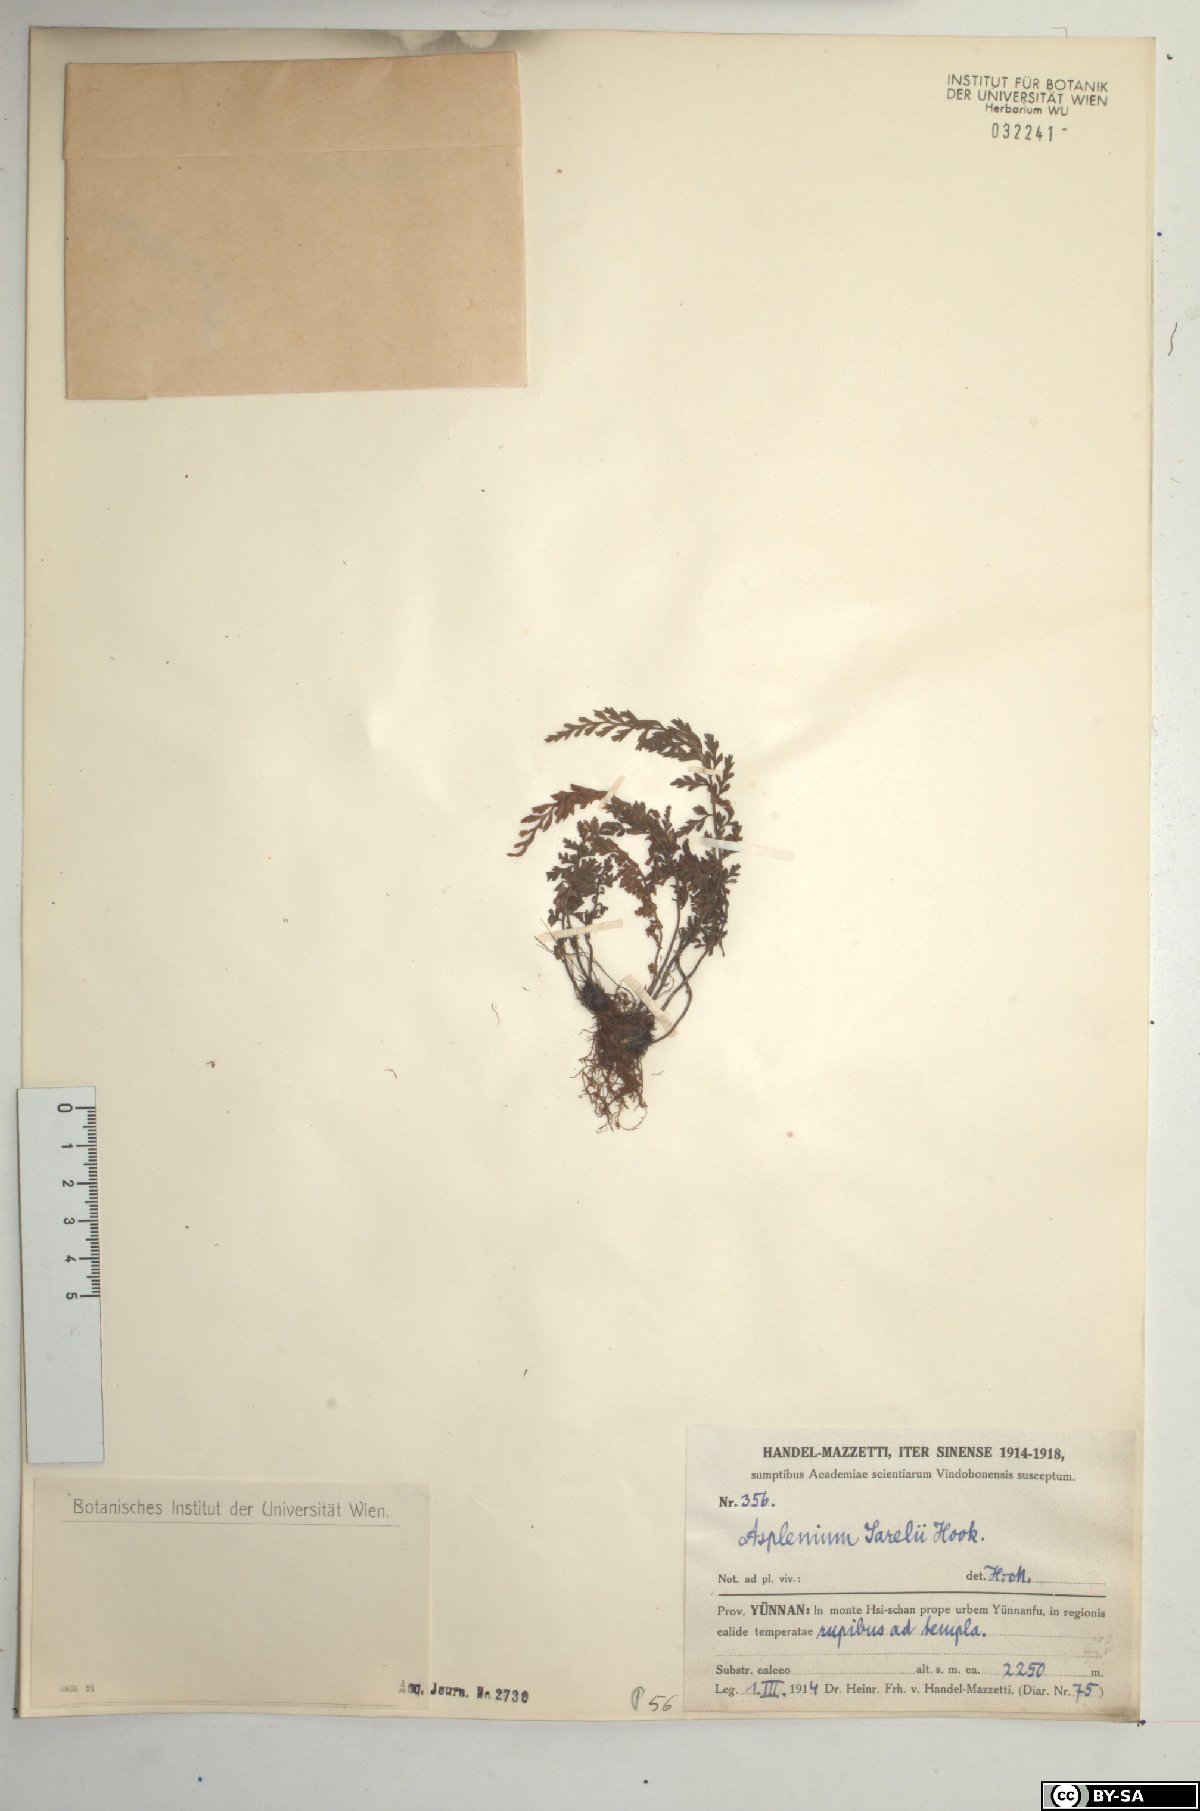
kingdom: Plantae
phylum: Tracheophyta
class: Polypodiopsida
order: Polypodiales
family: Aspleniaceae
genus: Asplenium
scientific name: Asplenium sarelii
